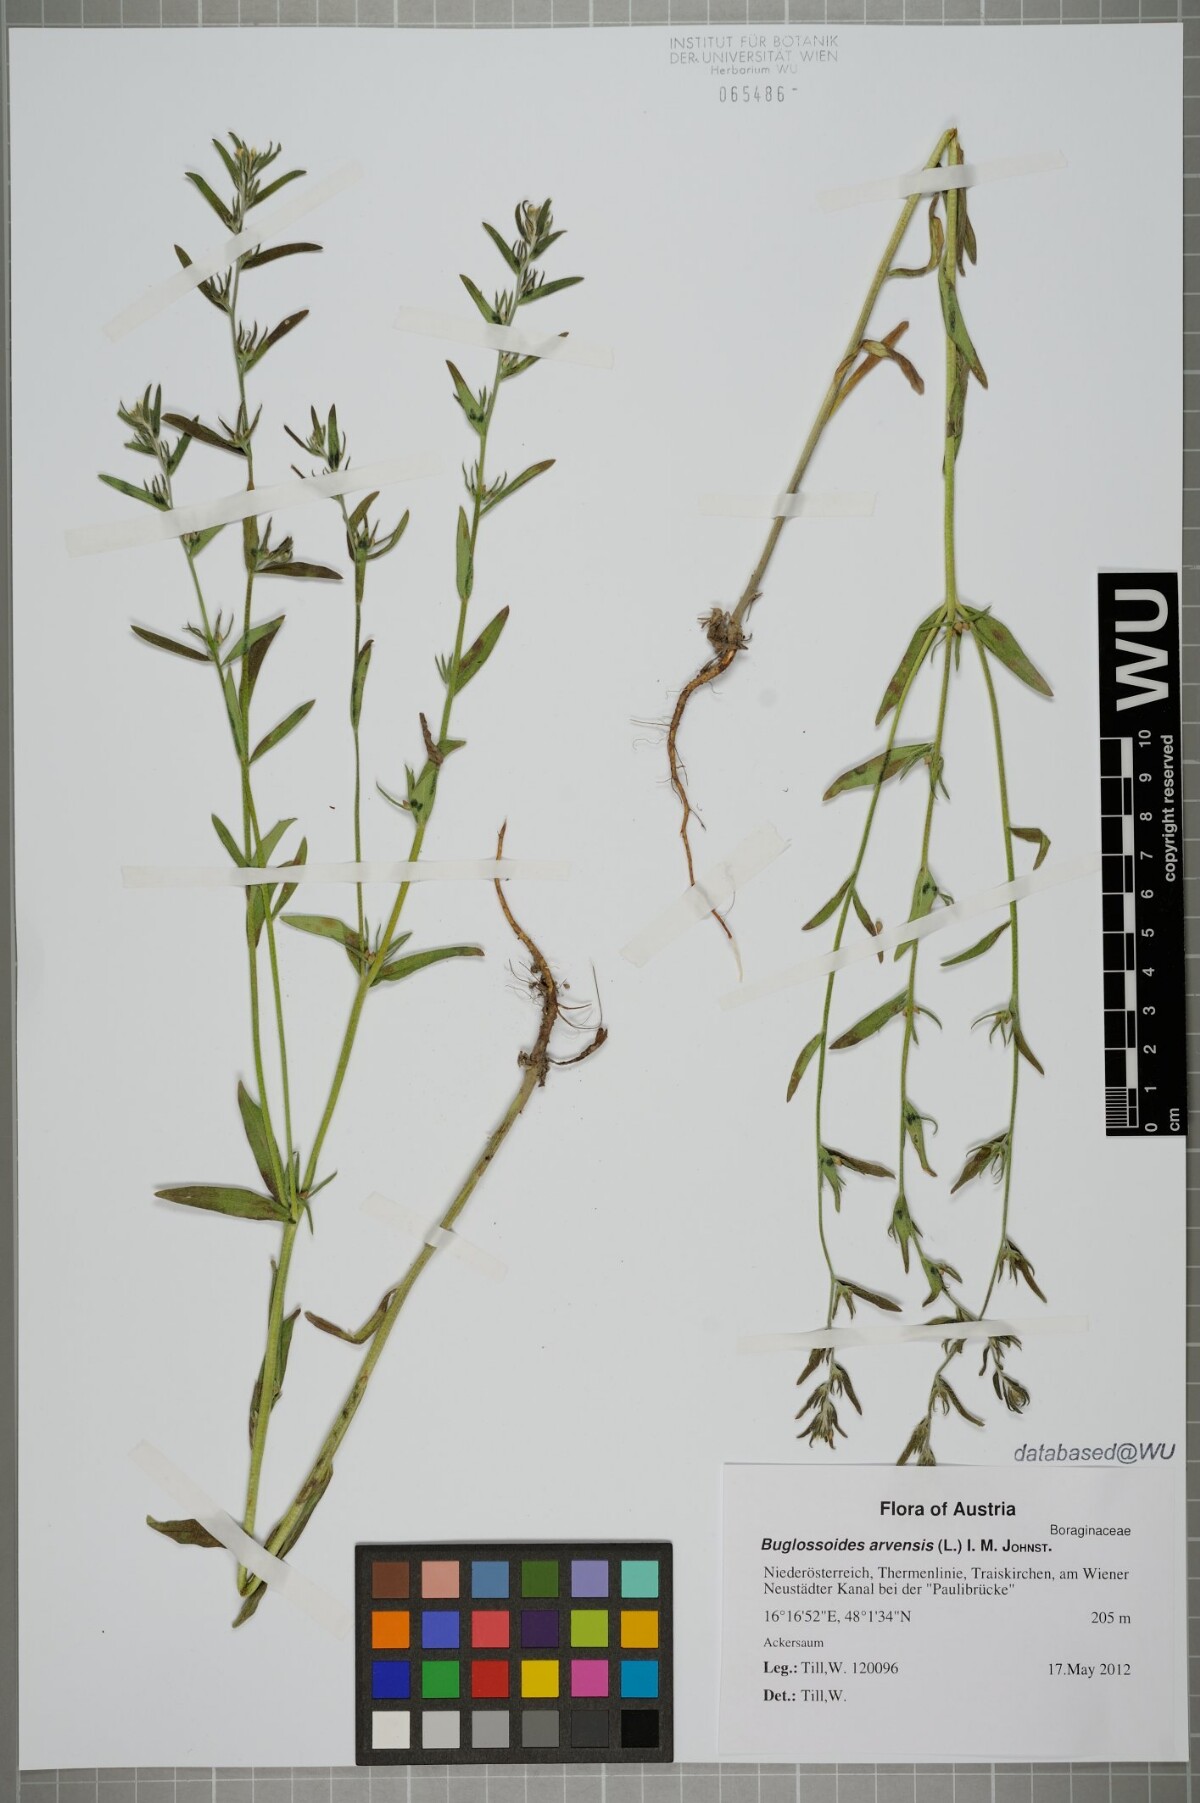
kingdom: Plantae
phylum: Tracheophyta
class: Magnoliopsida
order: Boraginales
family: Boraginaceae
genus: Buglossoides
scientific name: Buglossoides arvensis
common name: Corn gromwell
